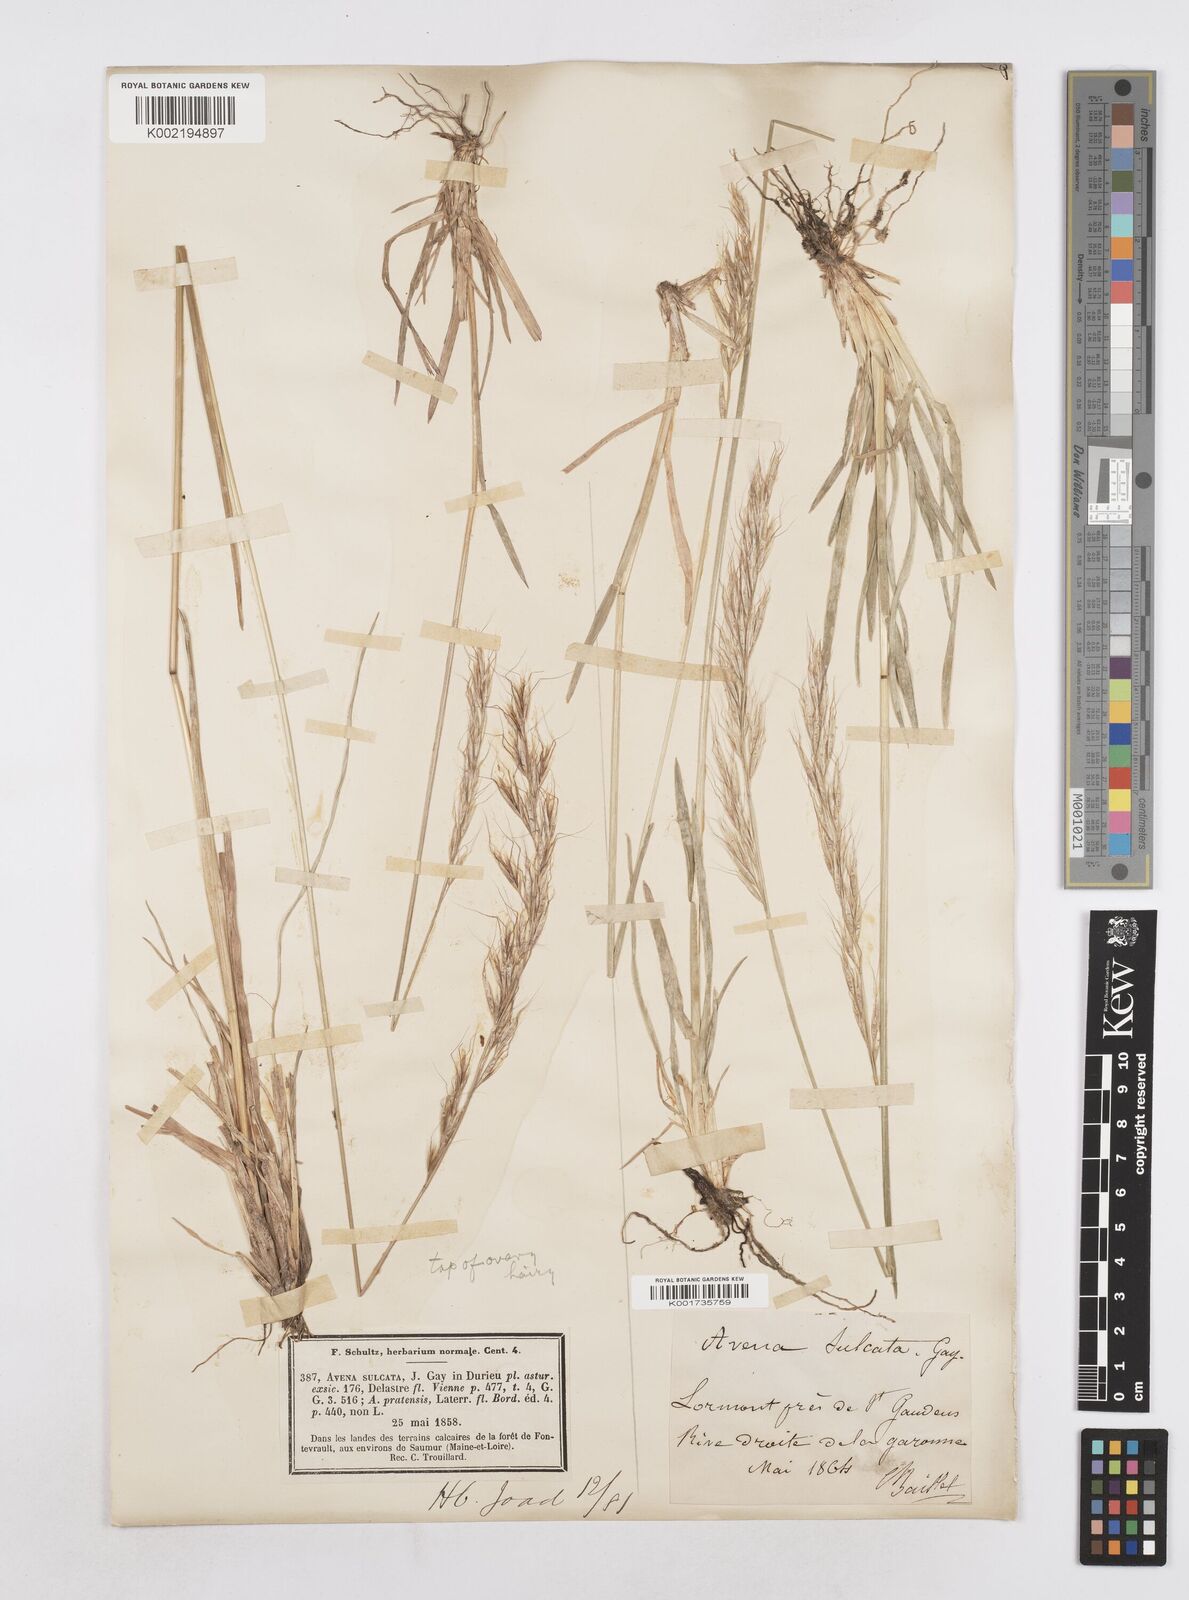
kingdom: Plantae
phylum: Tracheophyta
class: Liliopsida
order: Poales
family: Poaceae
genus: Helictotrichon
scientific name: Helictotrichon
